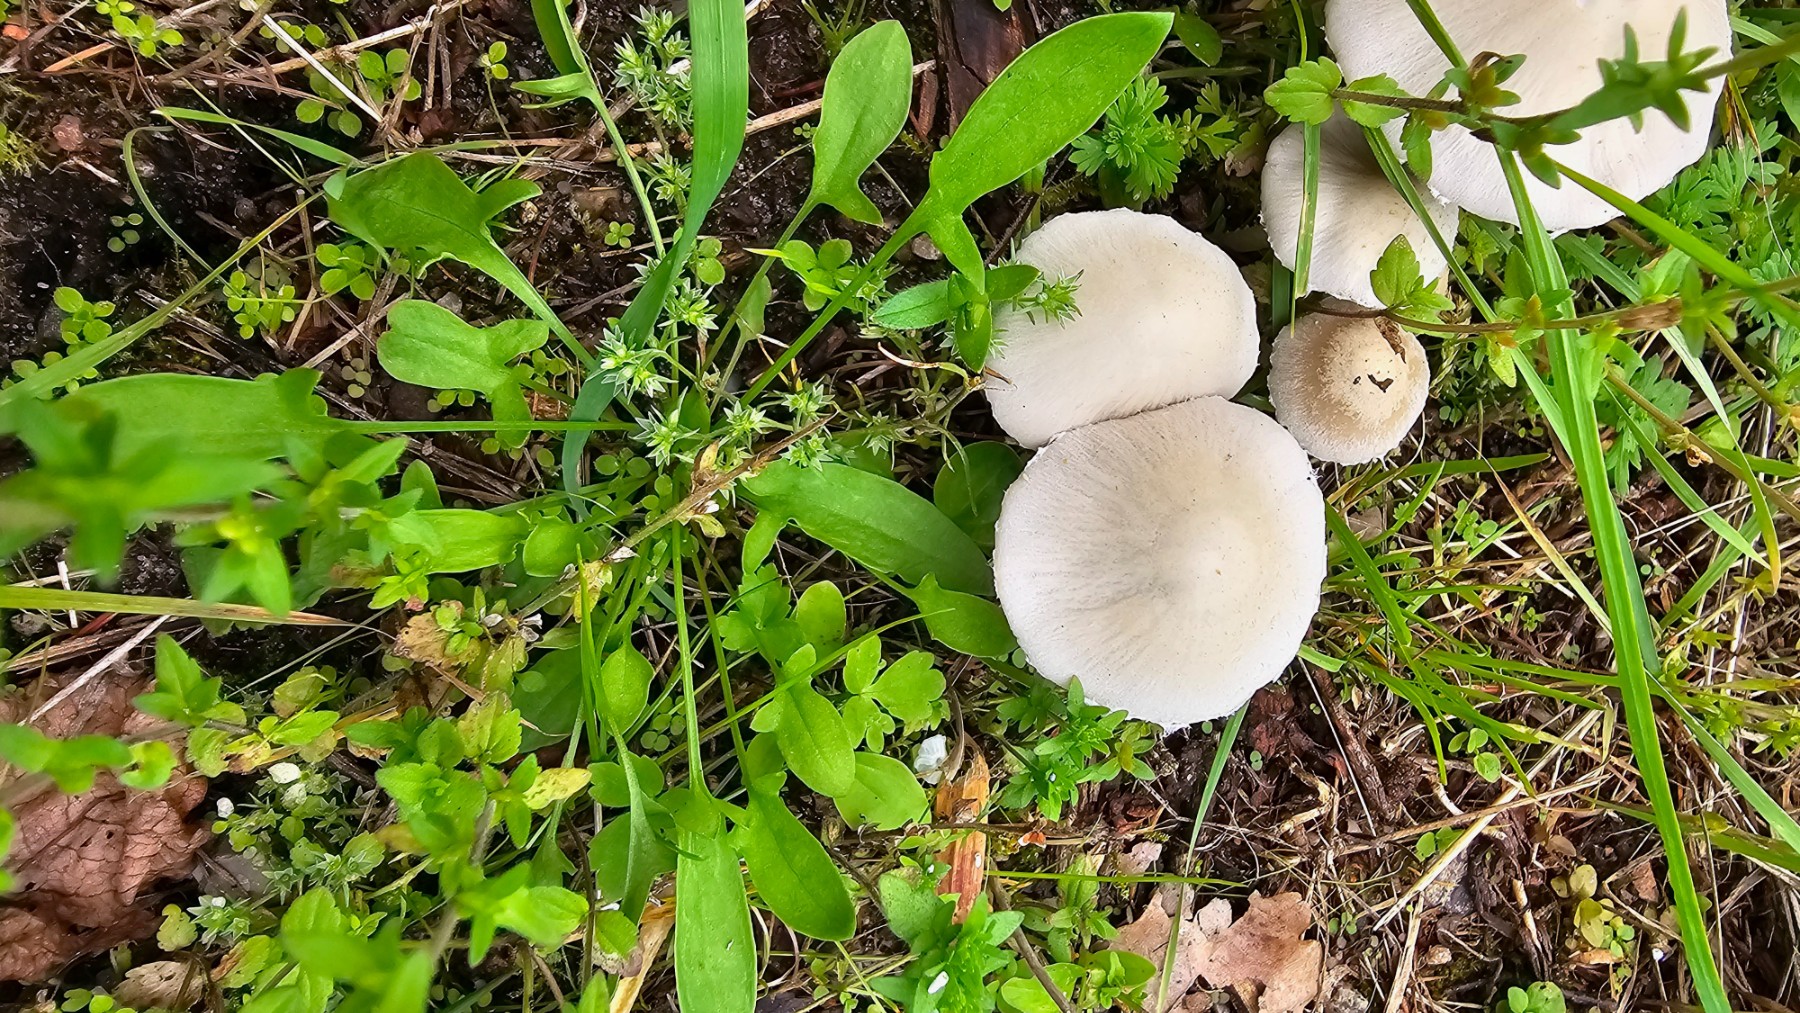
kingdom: Fungi
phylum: Basidiomycota
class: Agaricomycetes
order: Agaricales
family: Psathyrellaceae
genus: Candolleomyces
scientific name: Candolleomyces candolleanus
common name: Candolles mørkhat
